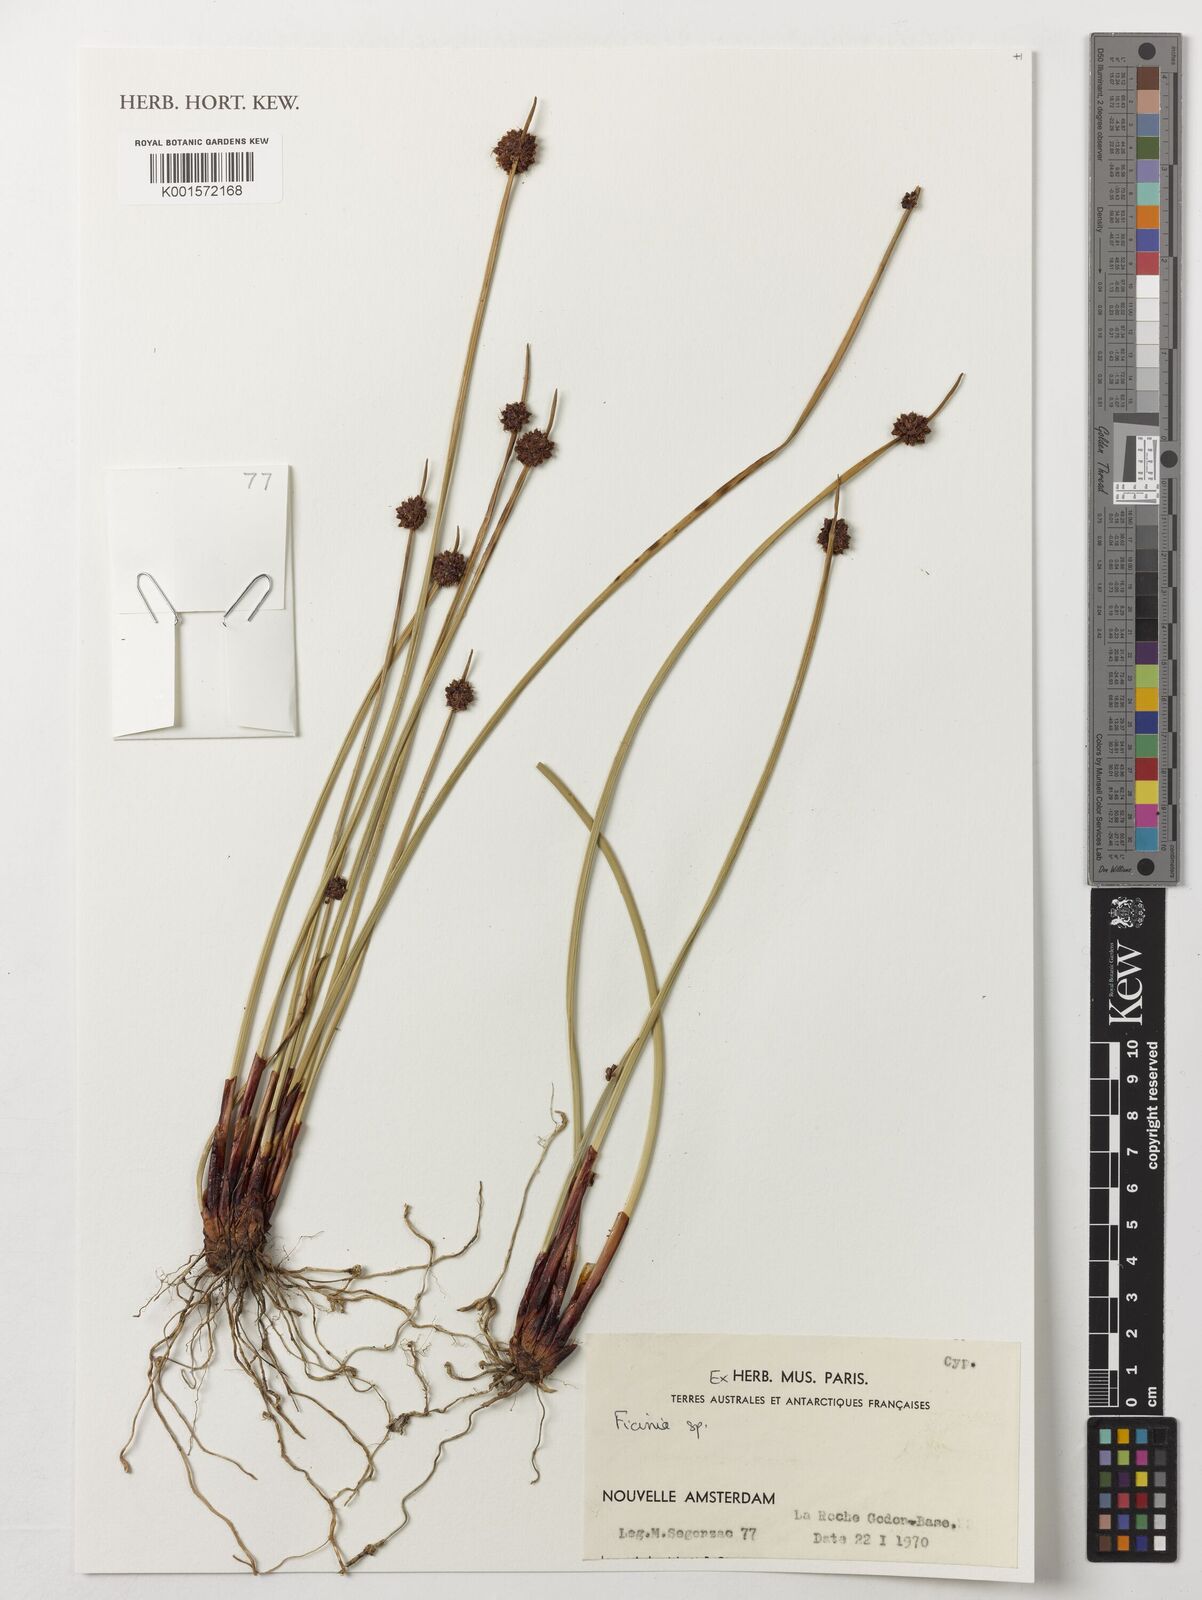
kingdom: Plantae
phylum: Tracheophyta
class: Liliopsida
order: Poales
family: Cyperaceae
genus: Ficinia
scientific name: Ficinia
